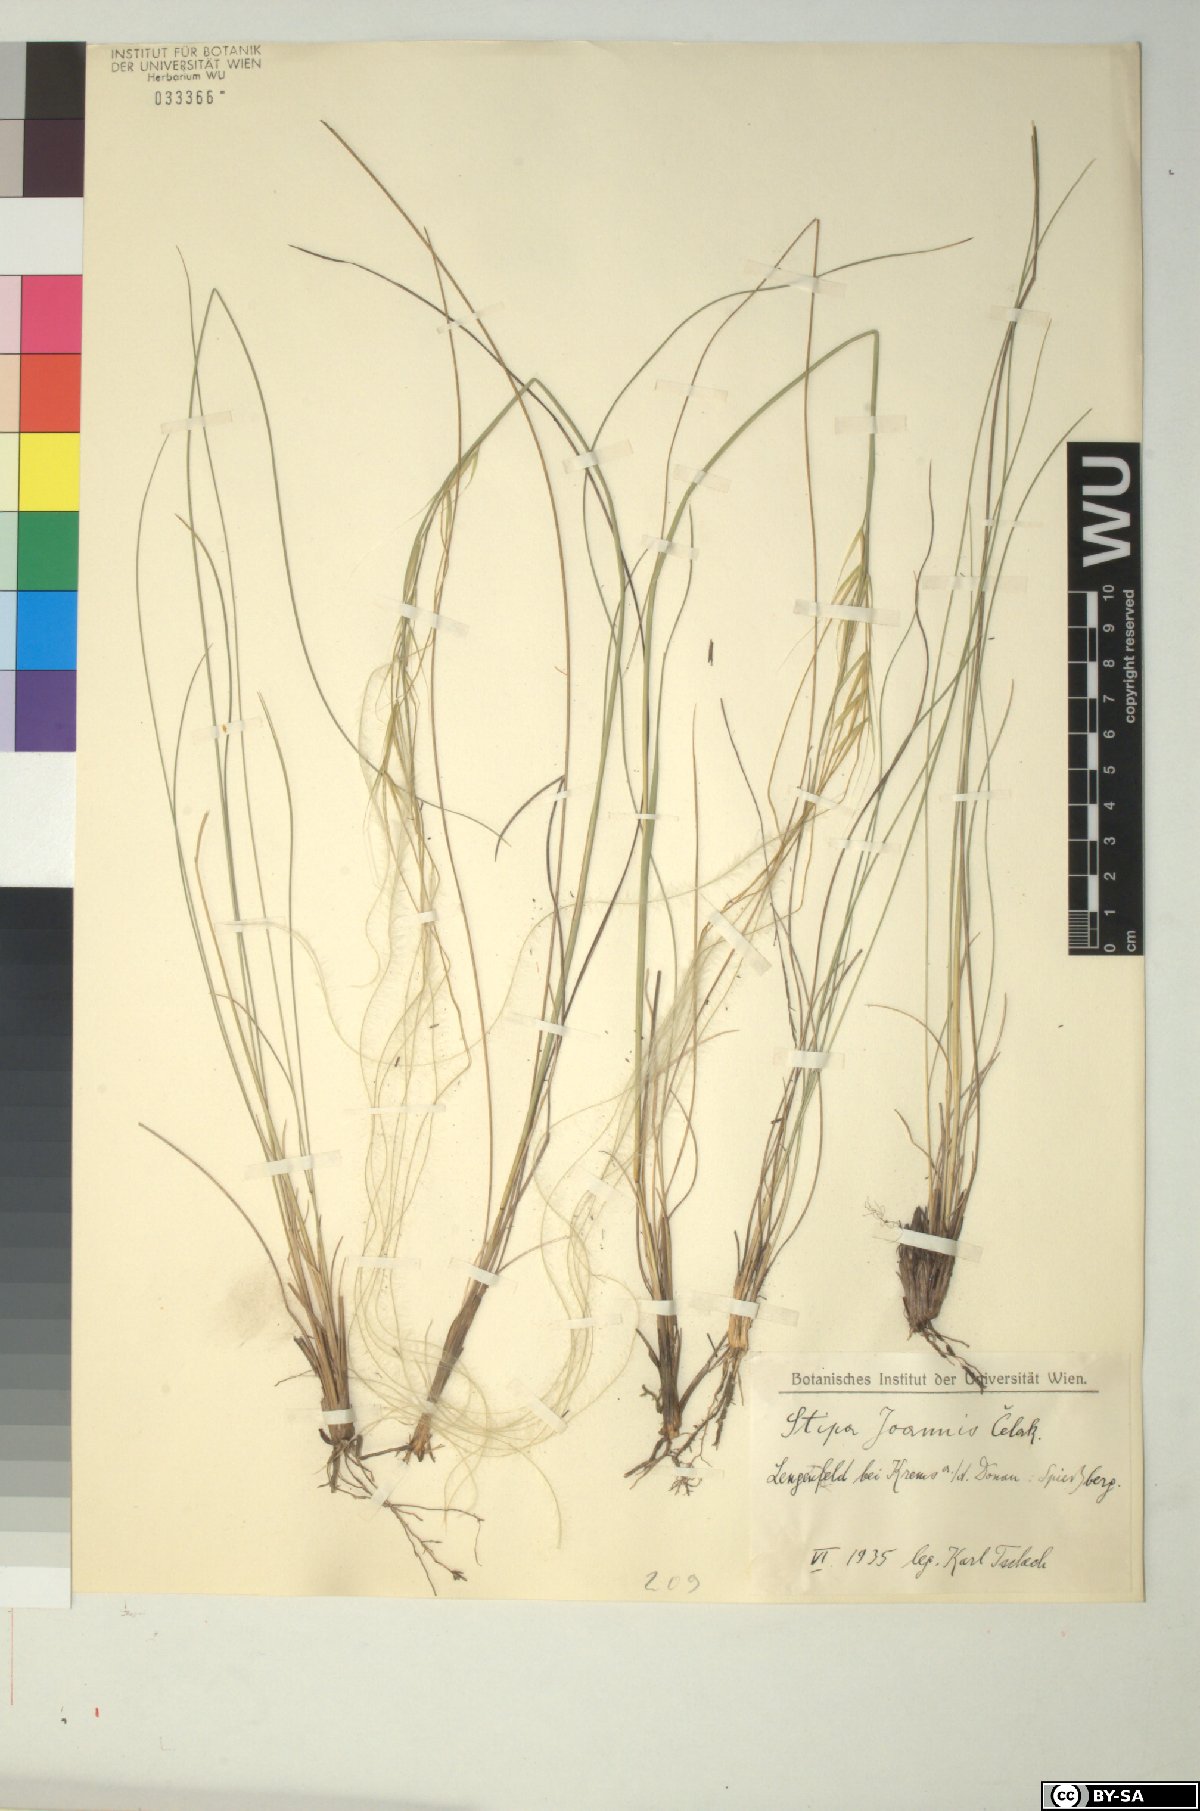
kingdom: Plantae
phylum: Tracheophyta
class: Liliopsida
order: Poales
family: Poaceae
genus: Stipa
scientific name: Stipa pennata
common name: European feather grass
